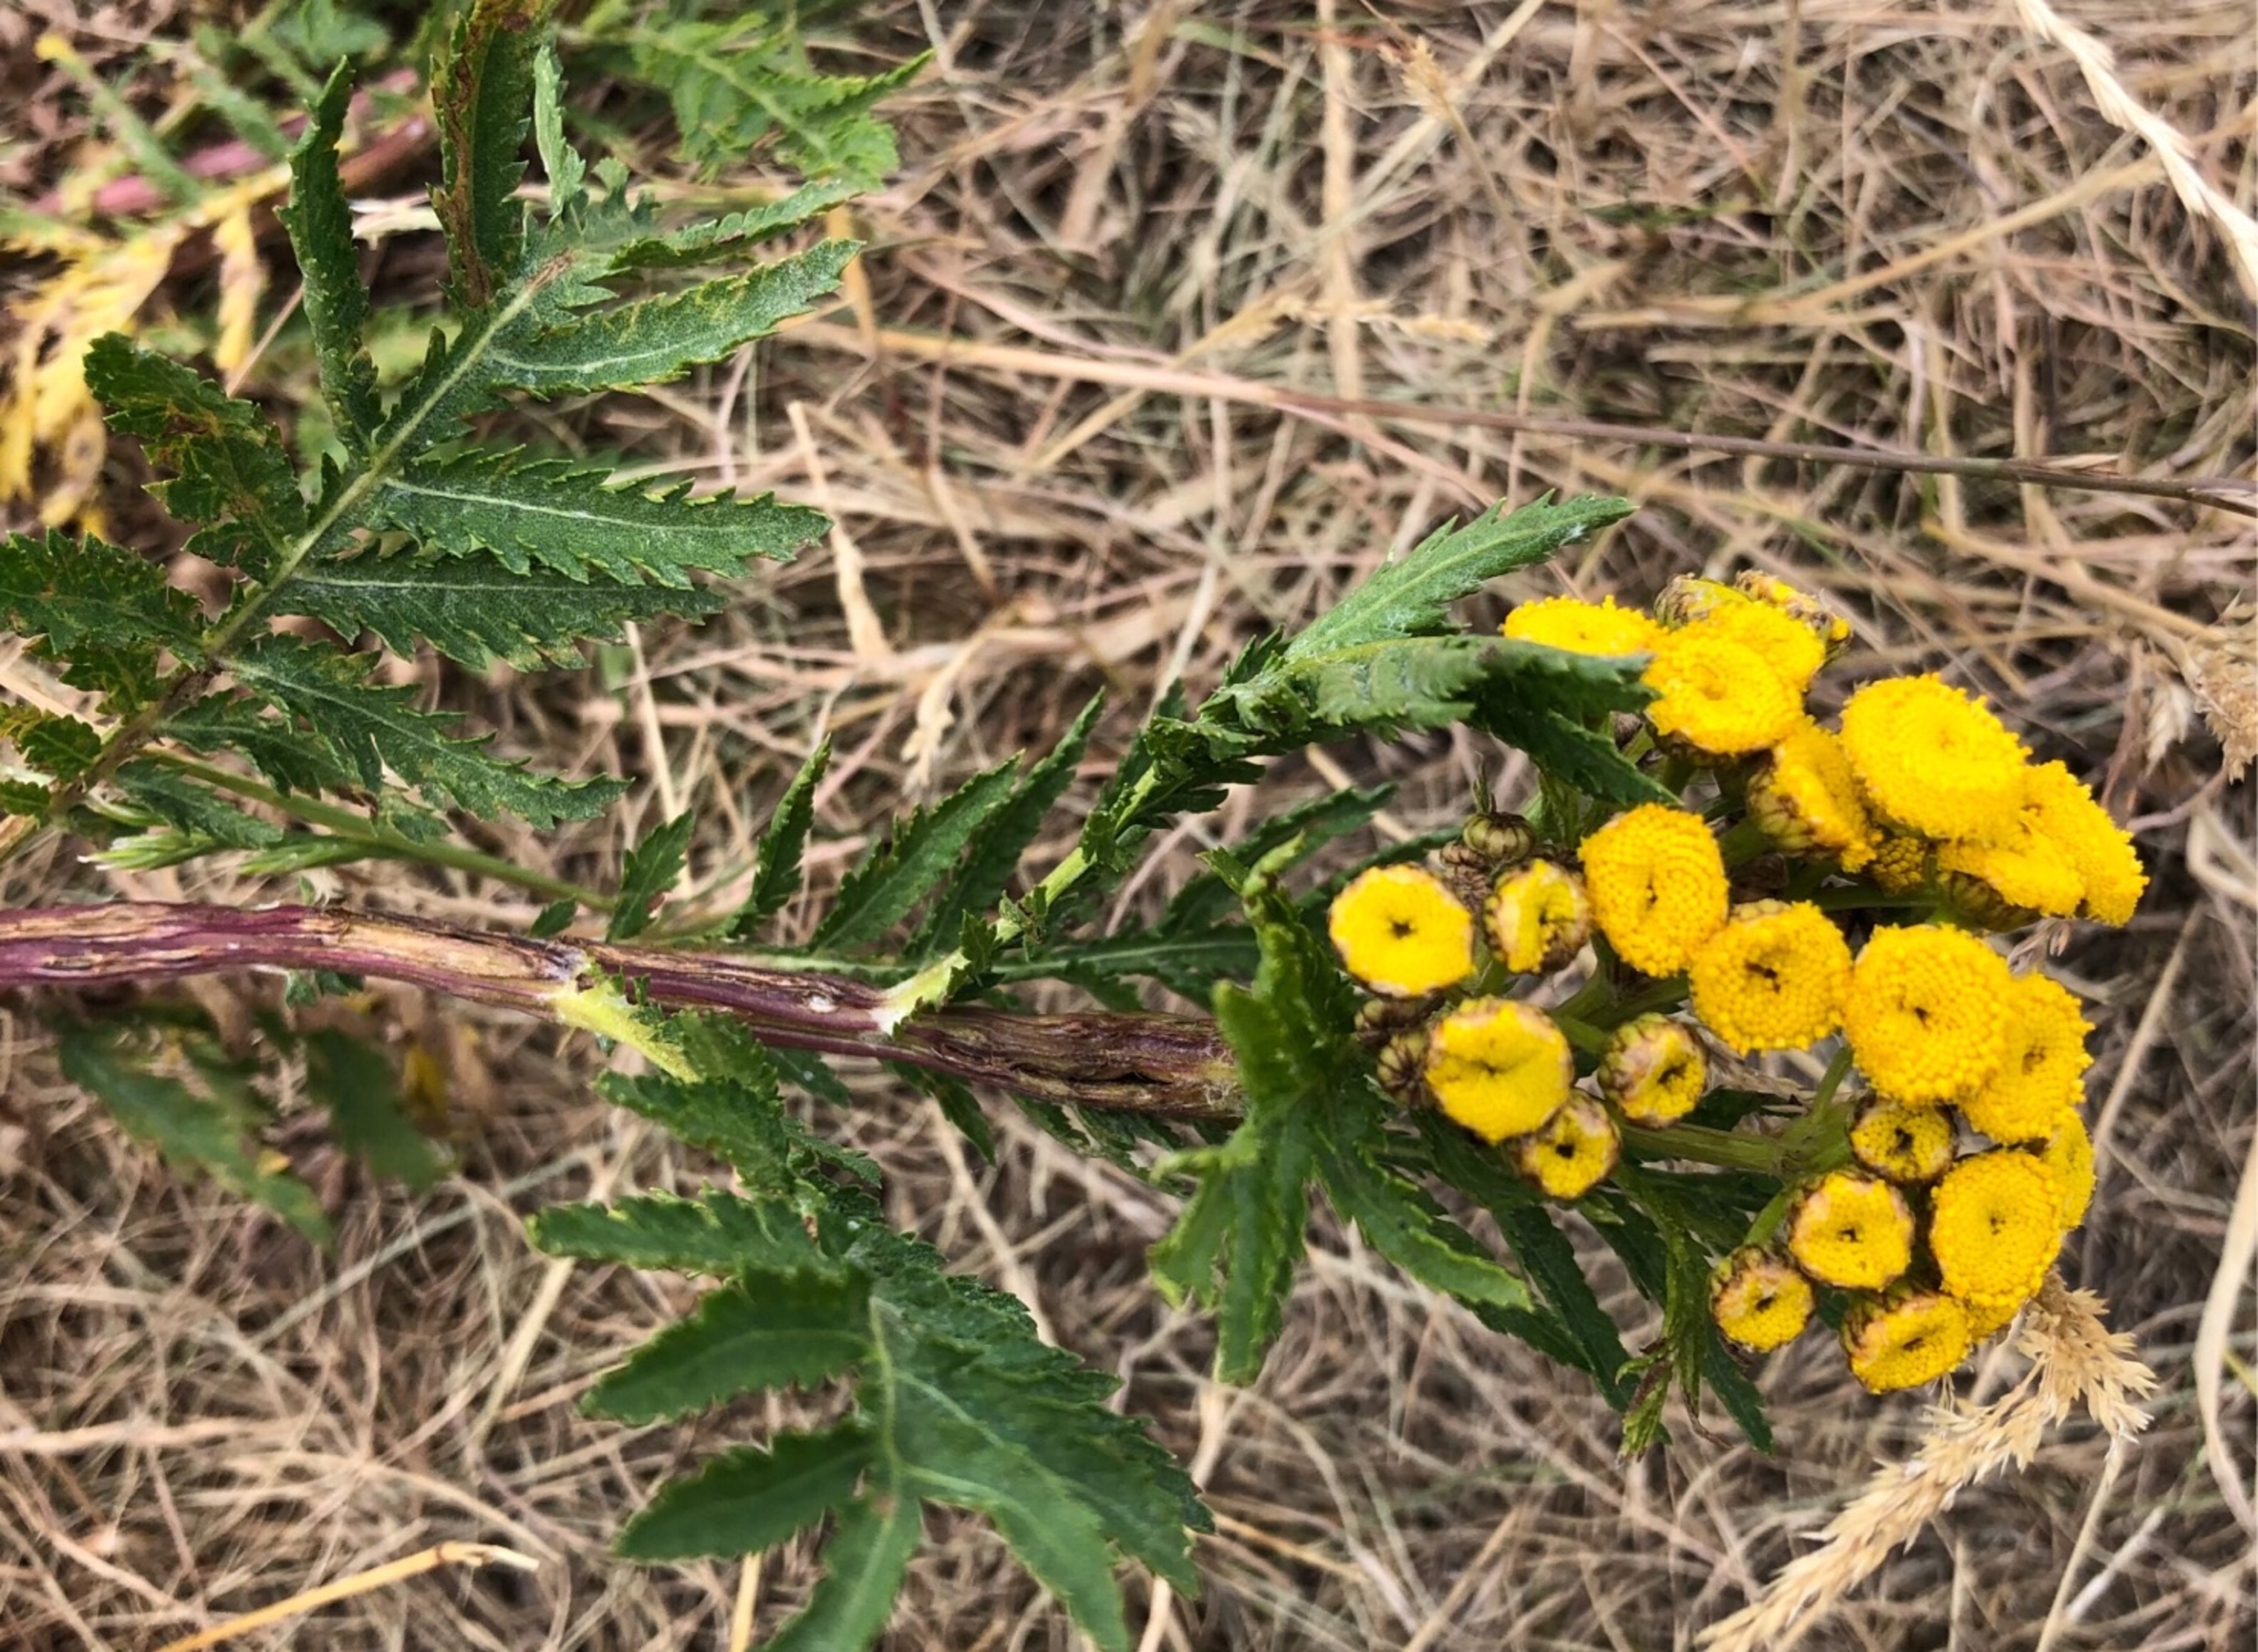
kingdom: Plantae
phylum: Tracheophyta
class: Magnoliopsida
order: Asterales
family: Asteraceae
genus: Tanacetum
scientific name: Tanacetum vulgare
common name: Rejnfan
